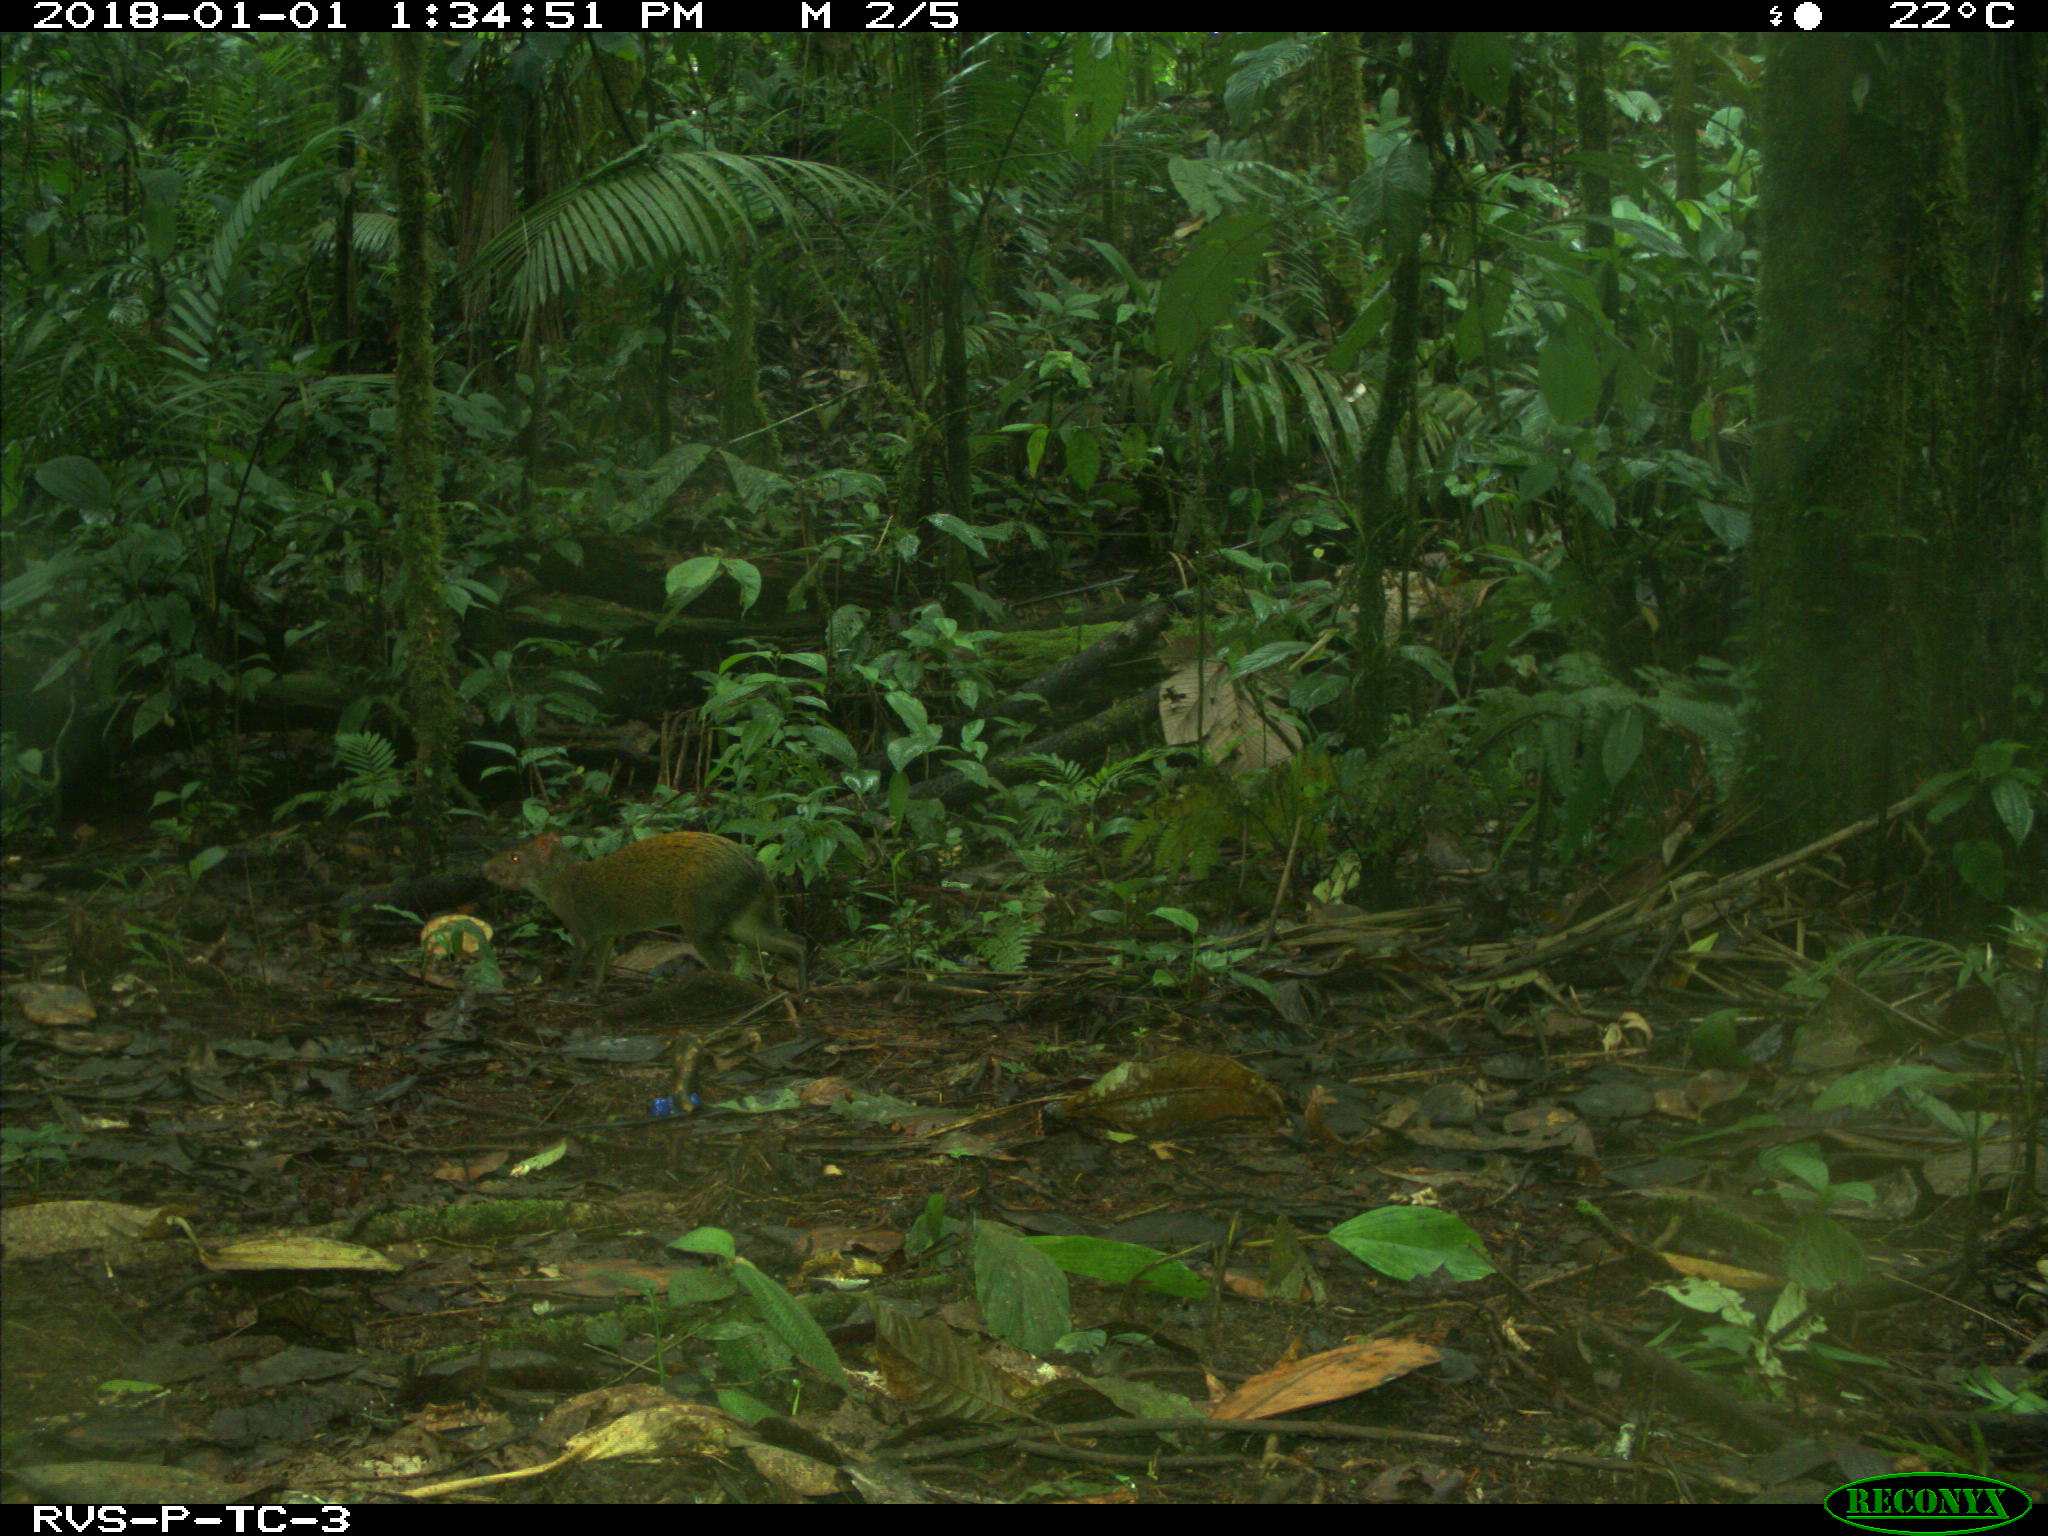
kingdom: Animalia
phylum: Chordata
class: Mammalia
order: Rodentia
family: Dasyproctidae
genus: Dasyprocta
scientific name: Dasyprocta punctata
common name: Central american agouti
